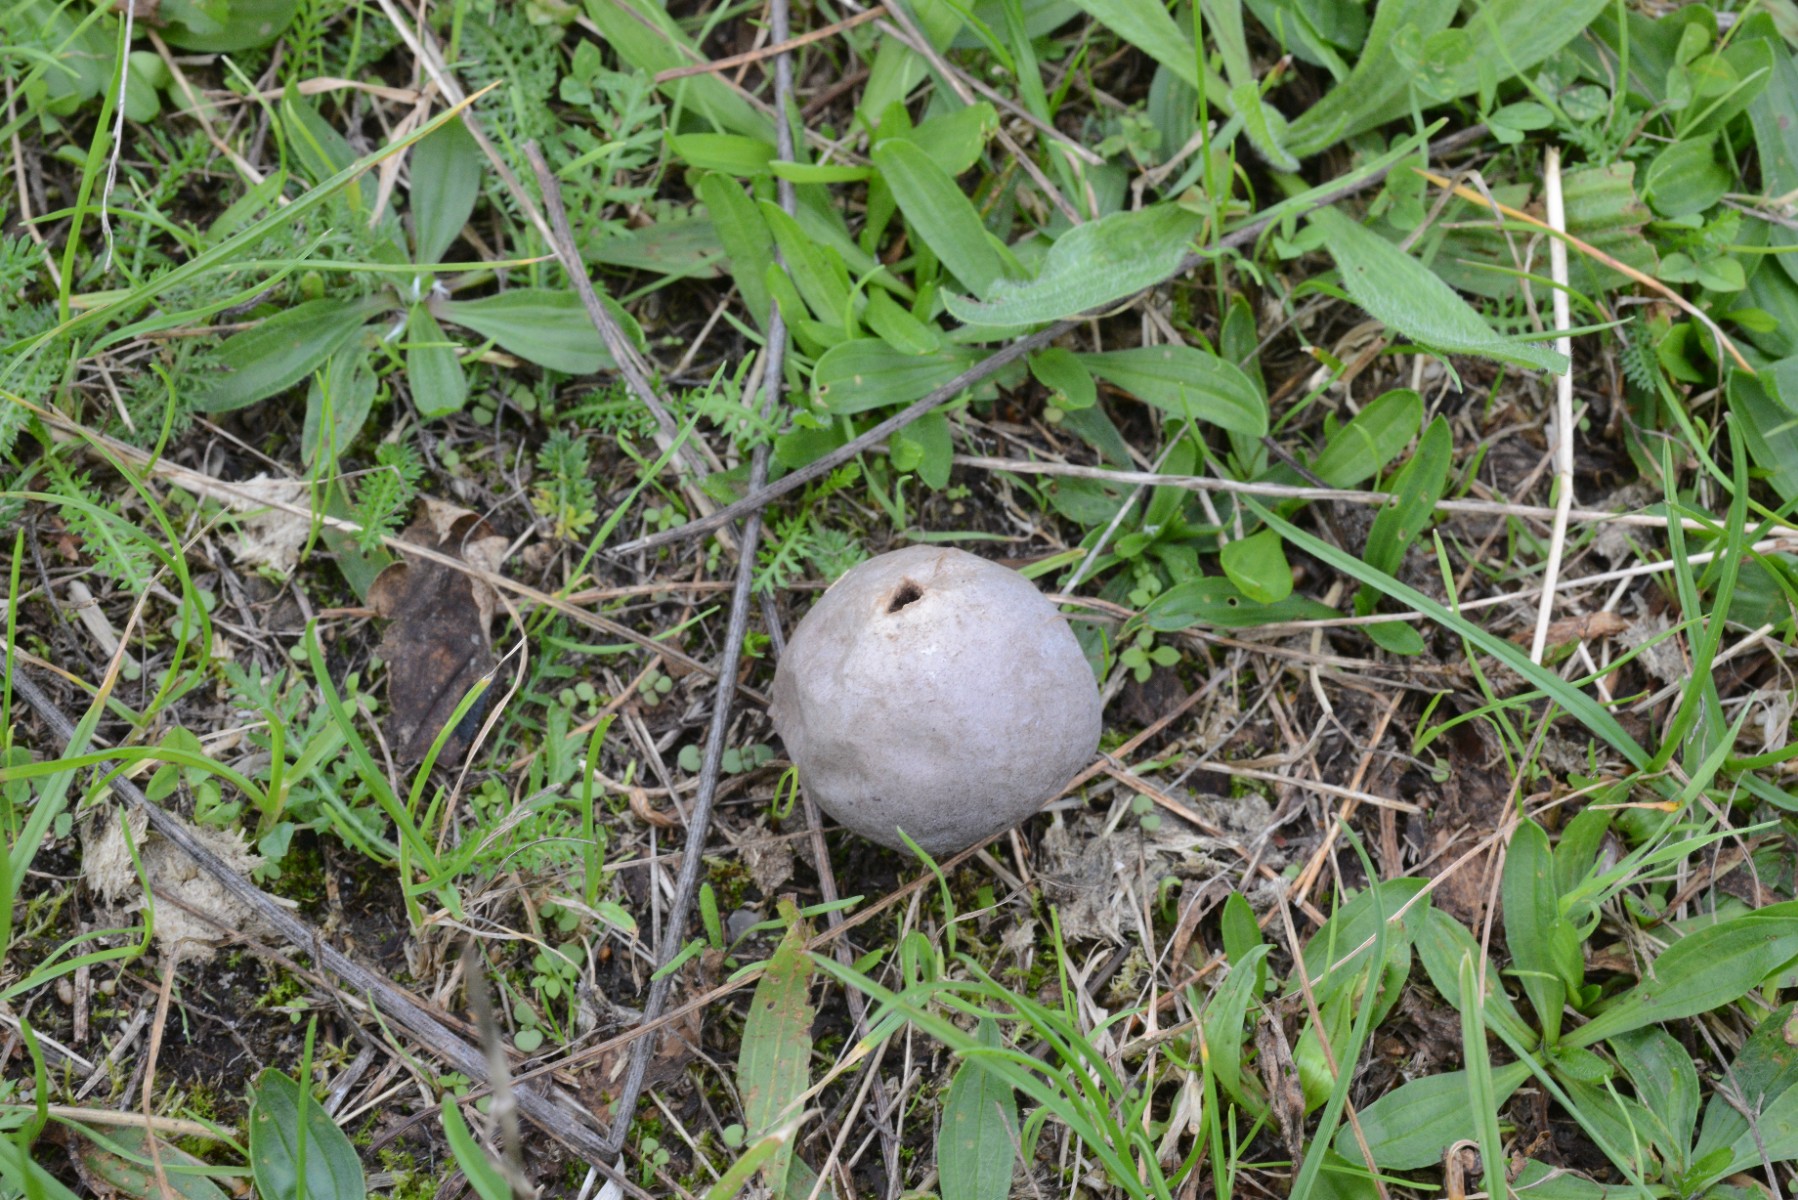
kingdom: Fungi
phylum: Basidiomycota
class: Agaricomycetes
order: Agaricales
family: Lycoperdaceae
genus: Bovista
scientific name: Bovista plumbea
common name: blygrå bovist
